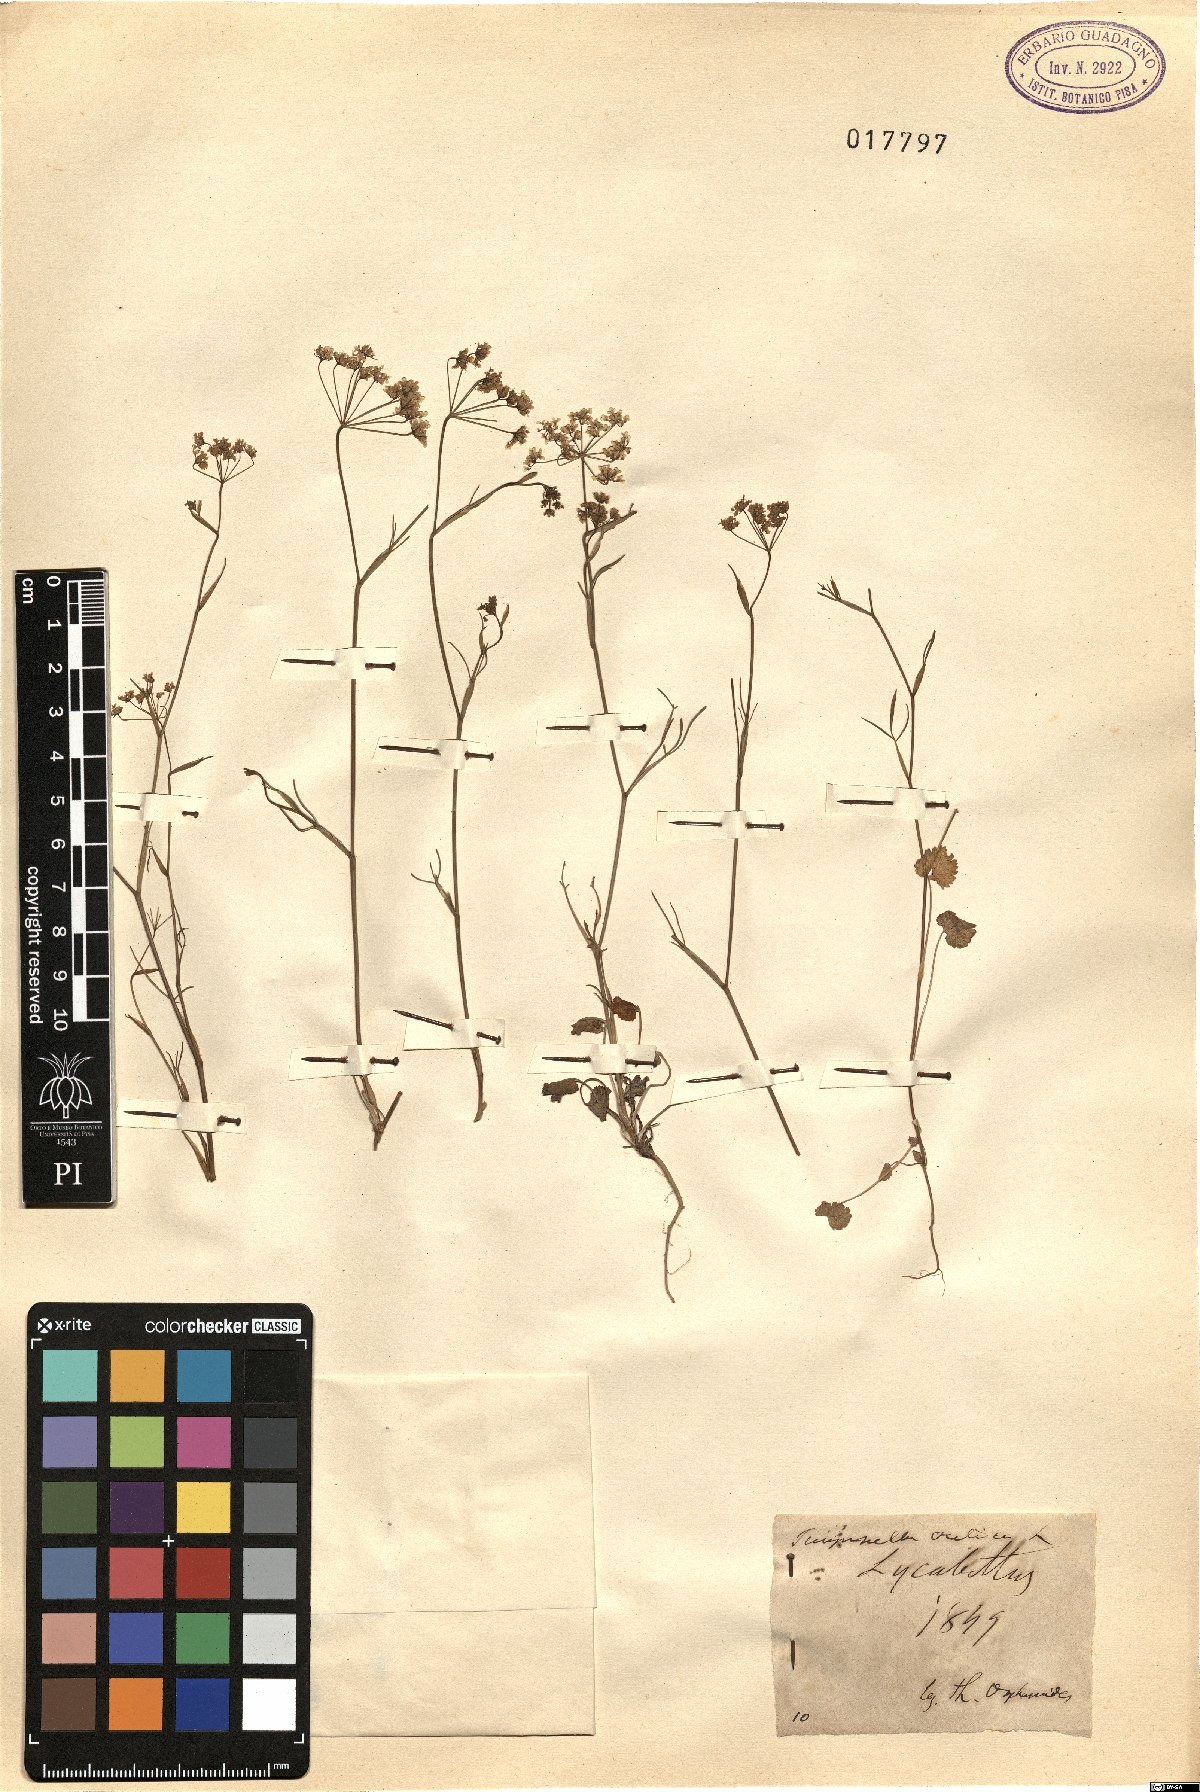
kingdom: Plantae
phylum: Tracheophyta
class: Magnoliopsida
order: Apiales
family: Apiaceae
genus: Pimpinella
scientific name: Pimpinella cretica
